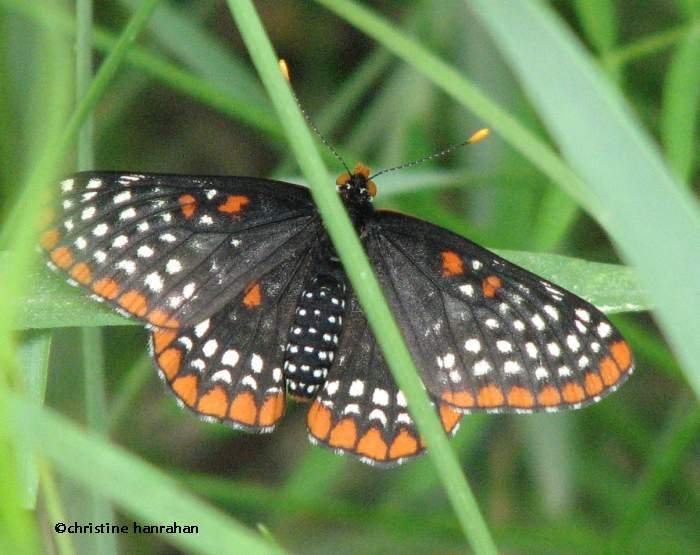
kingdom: Animalia
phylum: Arthropoda
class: Insecta
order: Lepidoptera
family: Nymphalidae
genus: Euphydryas
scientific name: Euphydryas phaeton
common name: Baltimore Checkerspot
